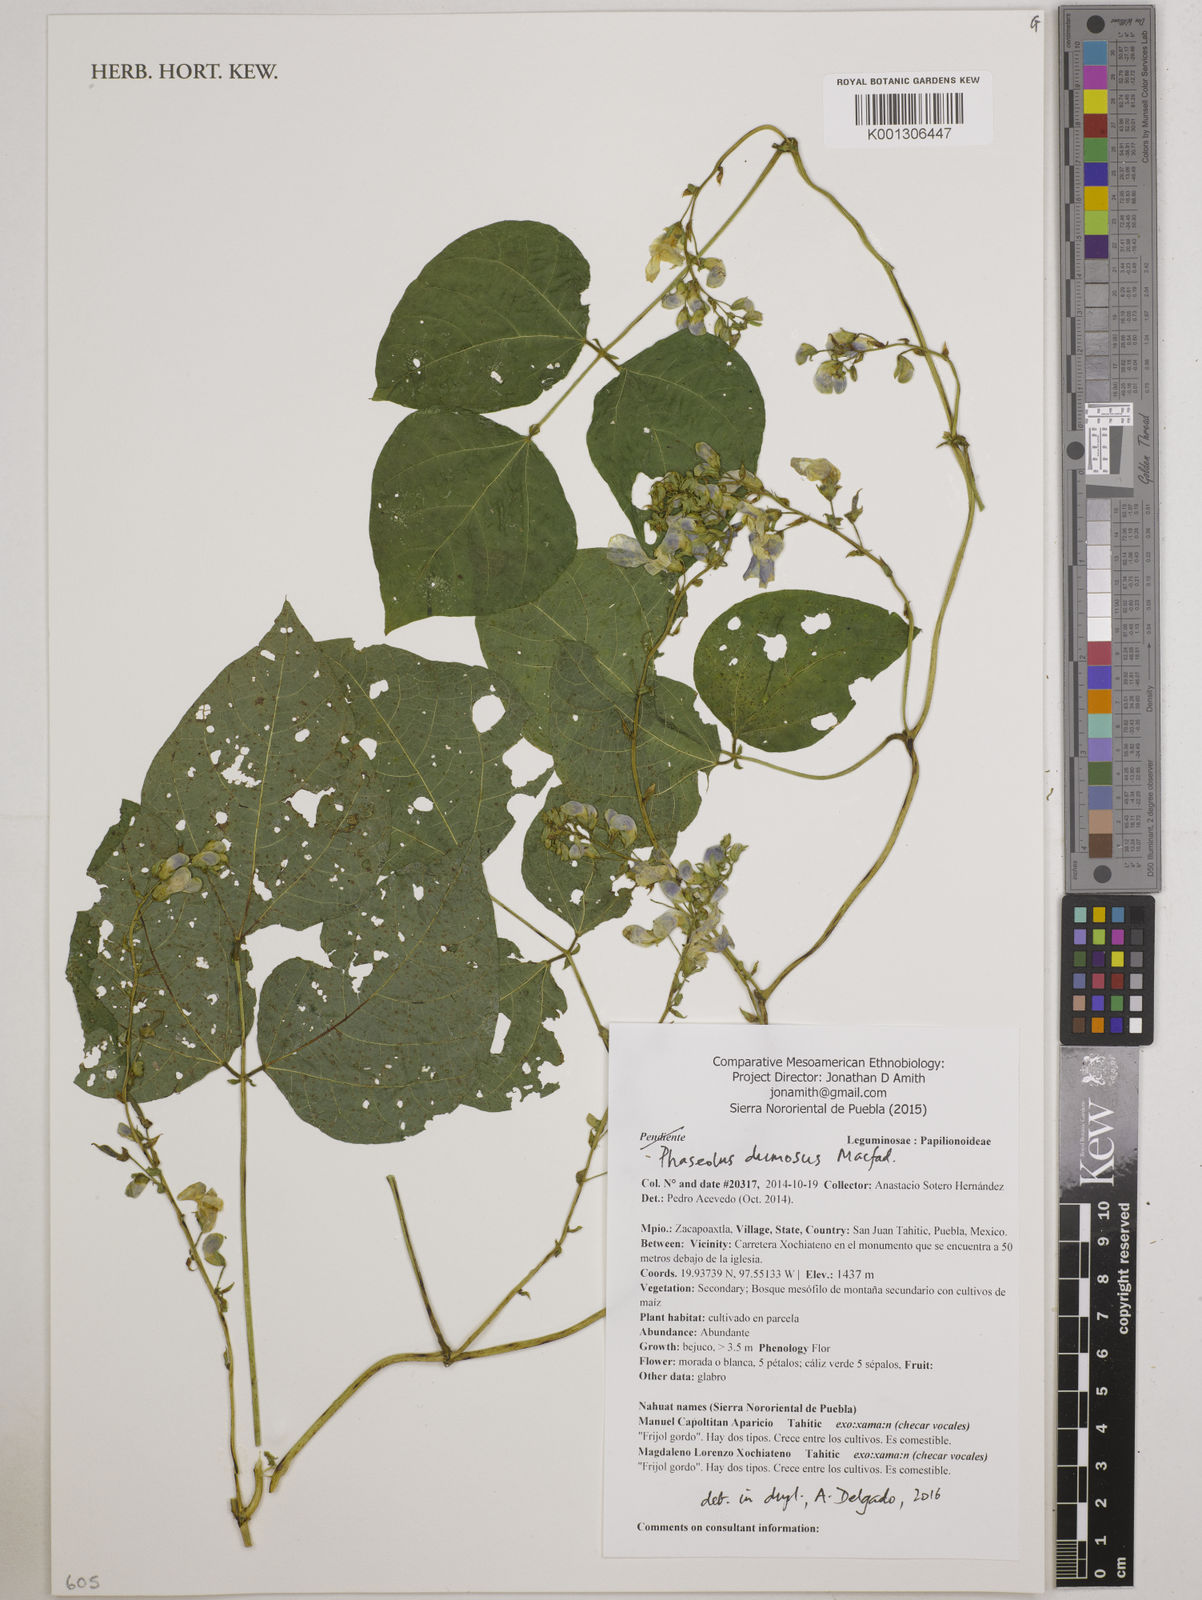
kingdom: Plantae
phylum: Tracheophyta
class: Magnoliopsida
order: Fabales
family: Fabaceae
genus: Phaseolus
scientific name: Phaseolus dumosus
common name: Year bean
